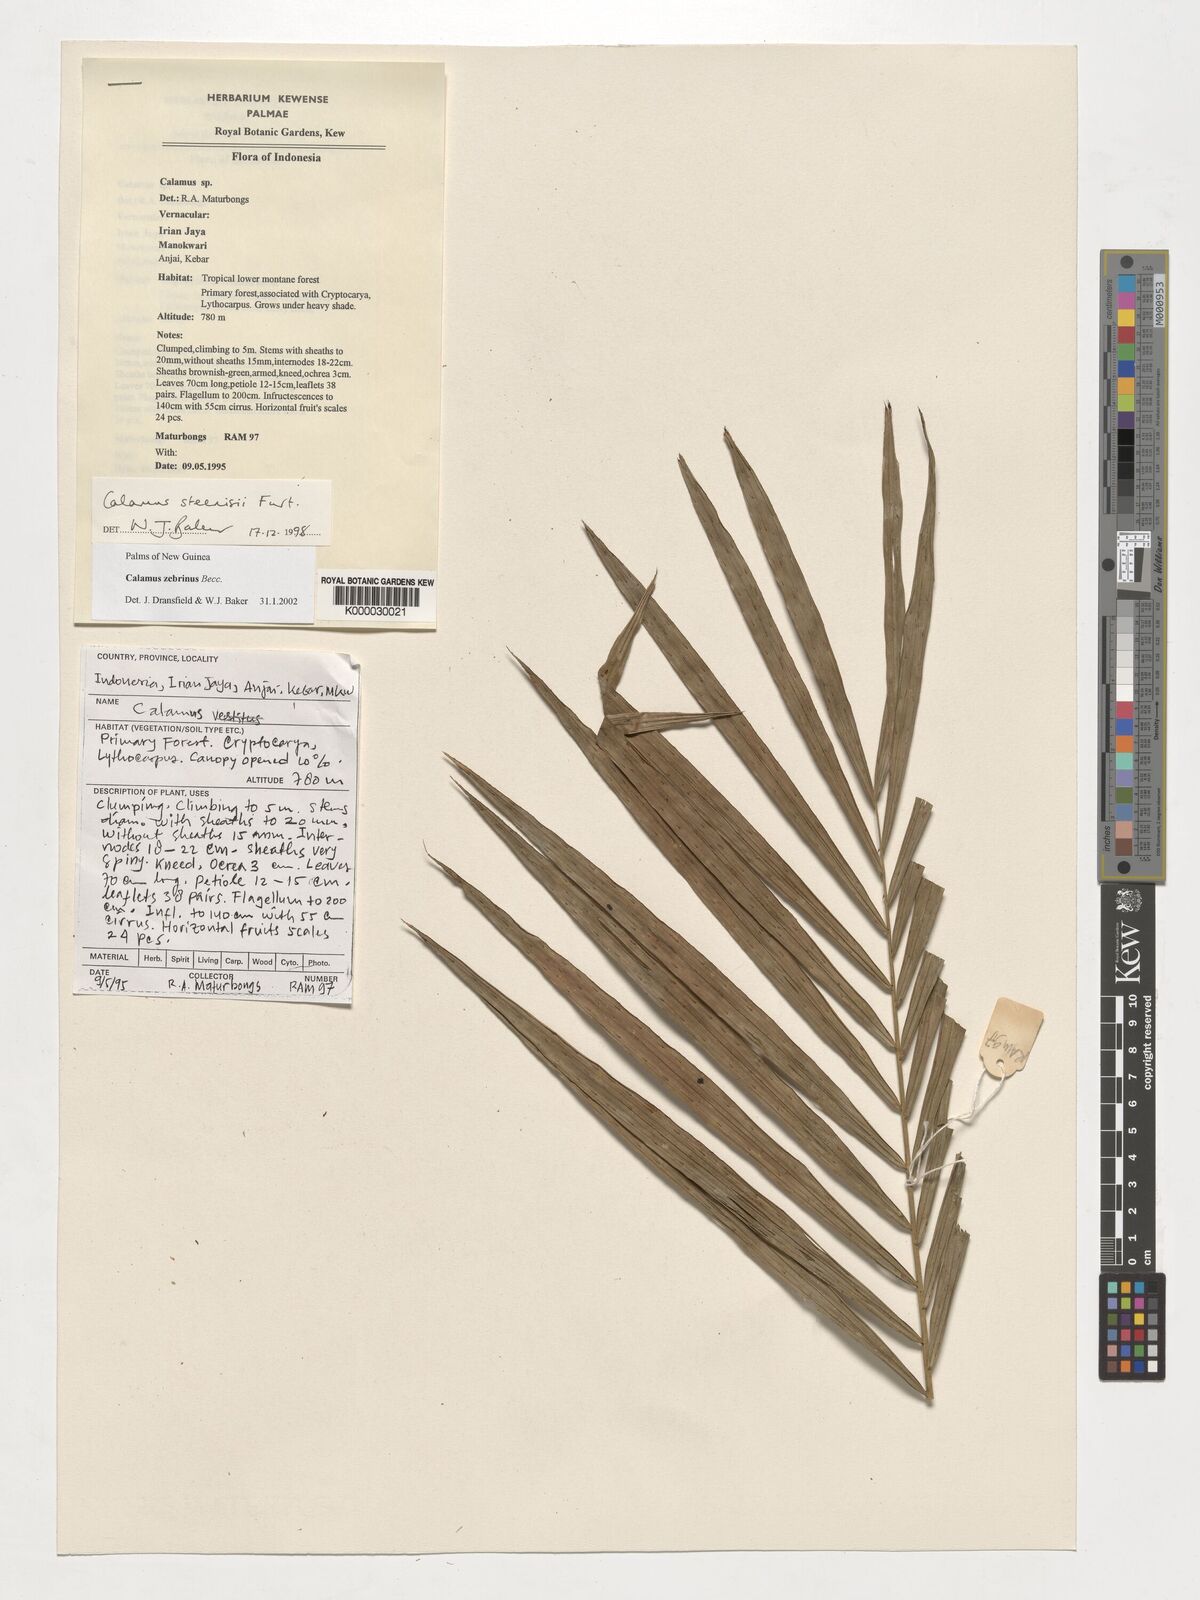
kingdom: Plantae
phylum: Tracheophyta
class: Liliopsida
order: Arecales
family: Arecaceae
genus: Calamus
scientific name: Calamus zebrinus
